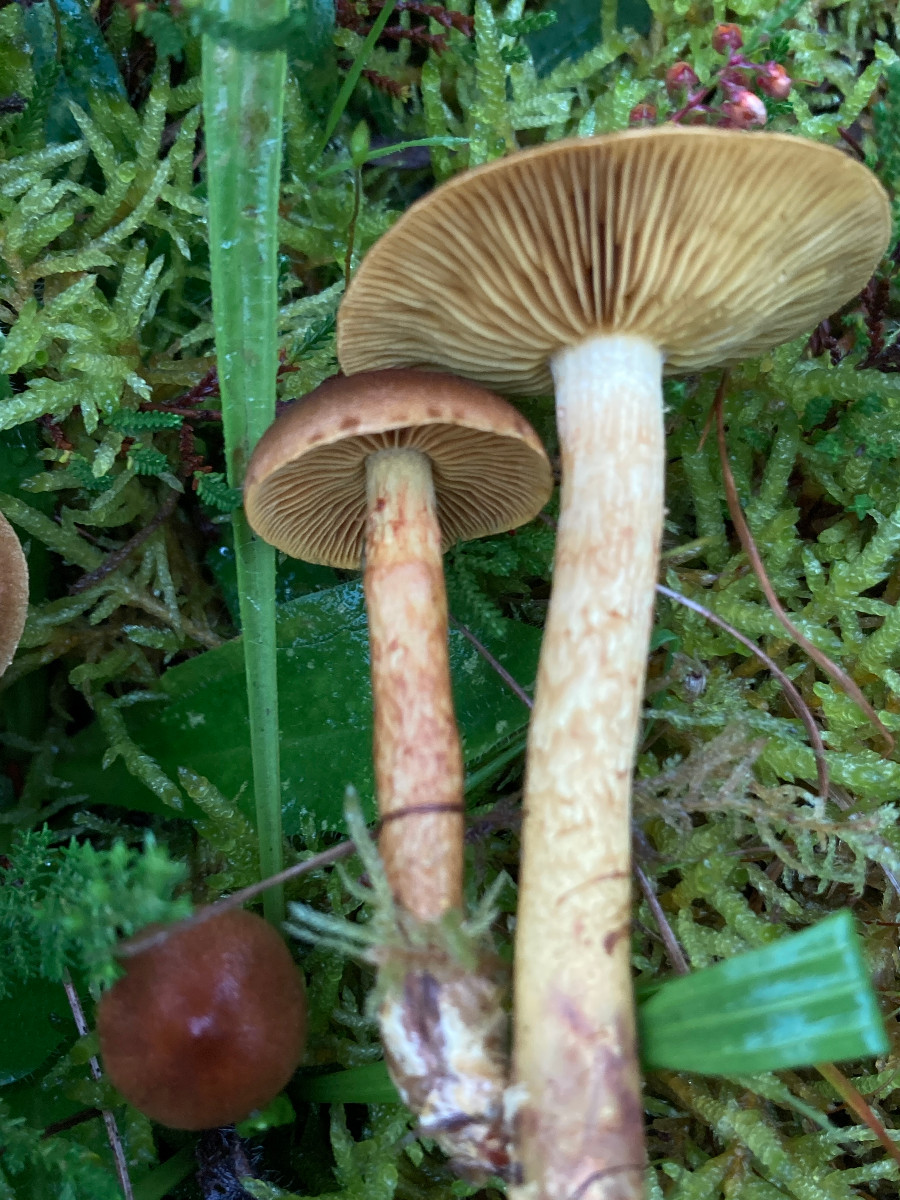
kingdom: Fungi
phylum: Basidiomycota
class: Agaricomycetes
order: Agaricales
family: Cortinariaceae
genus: Cortinarius
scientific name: Cortinarius
